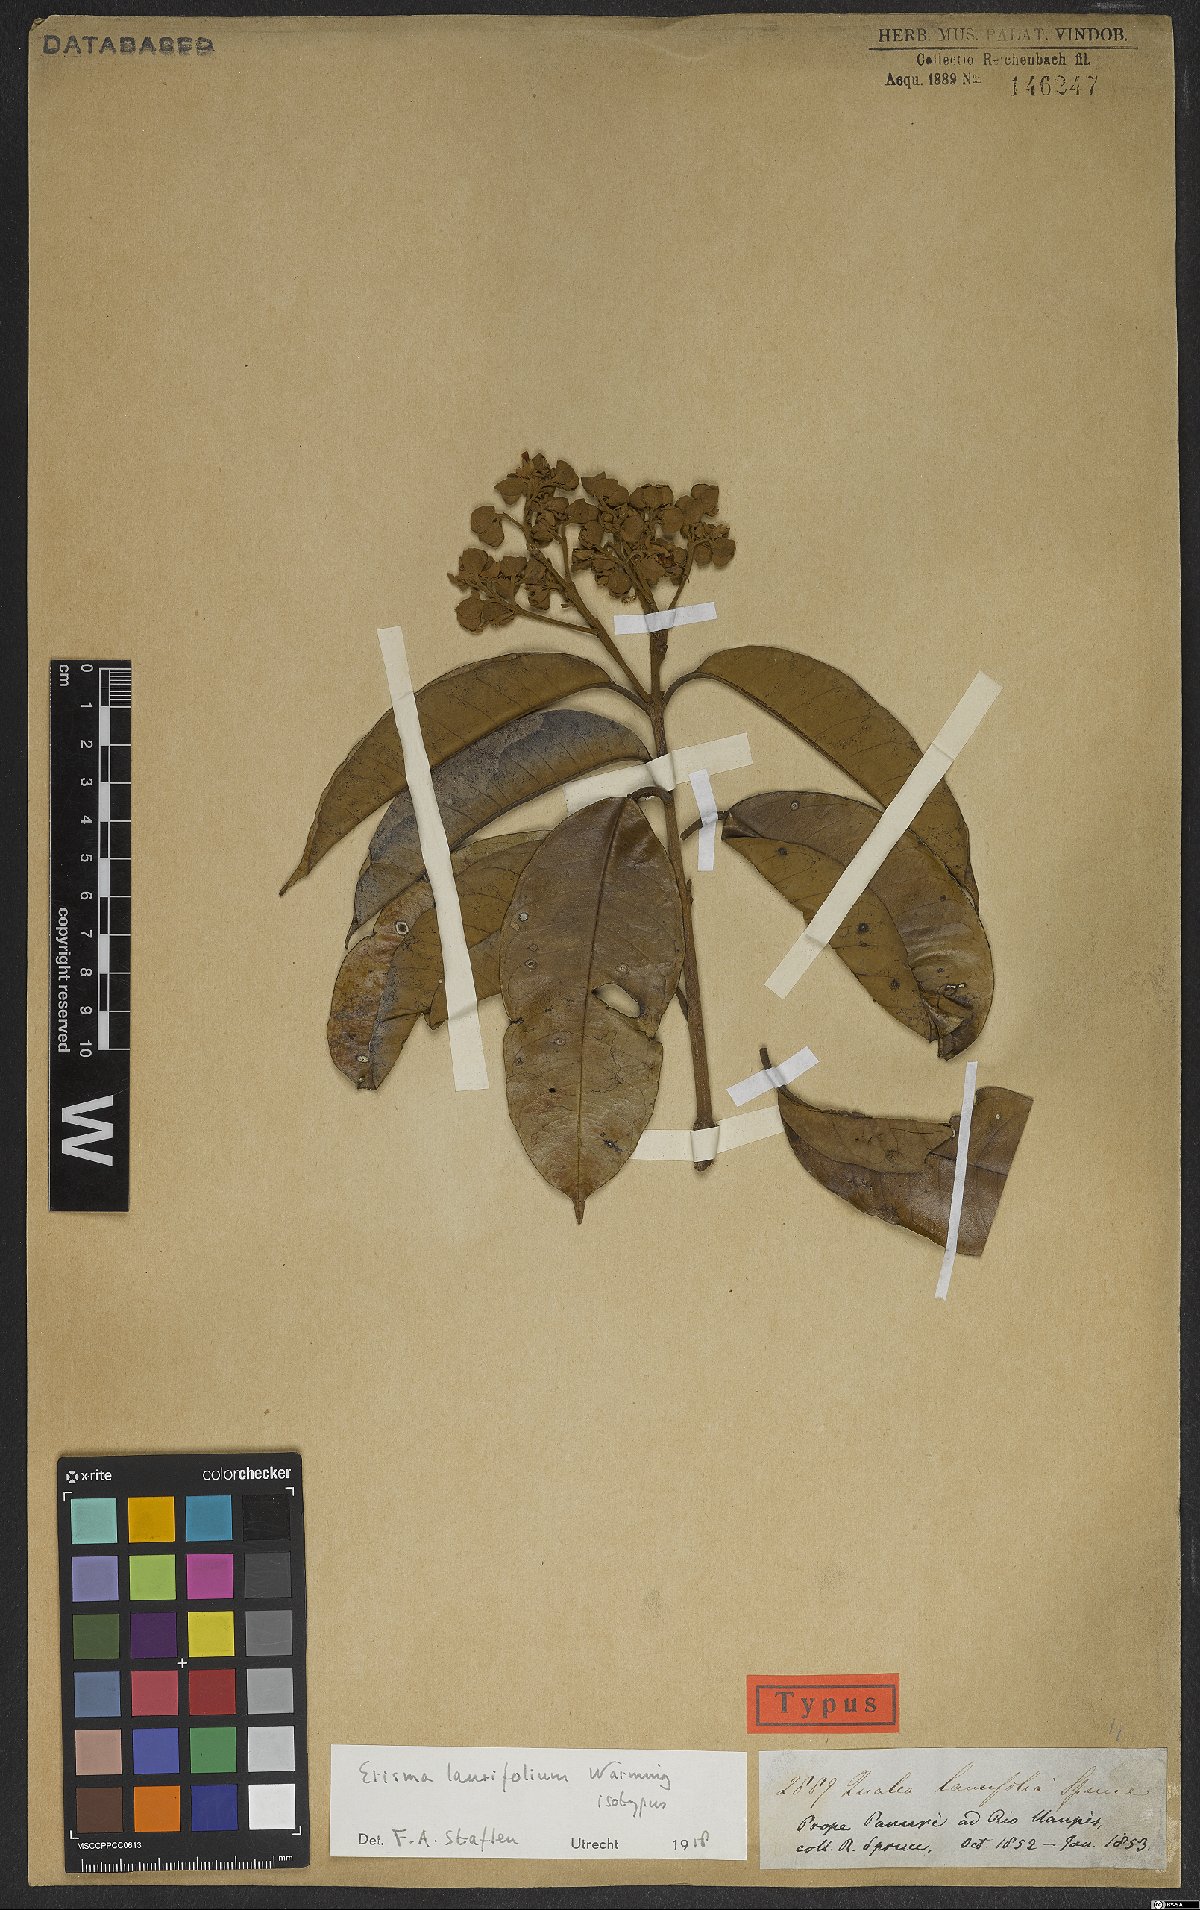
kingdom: Plantae
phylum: Tracheophyta
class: Magnoliopsida
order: Myrtales
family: Vochysiaceae
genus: Erisma
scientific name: Erisma laurifolium
